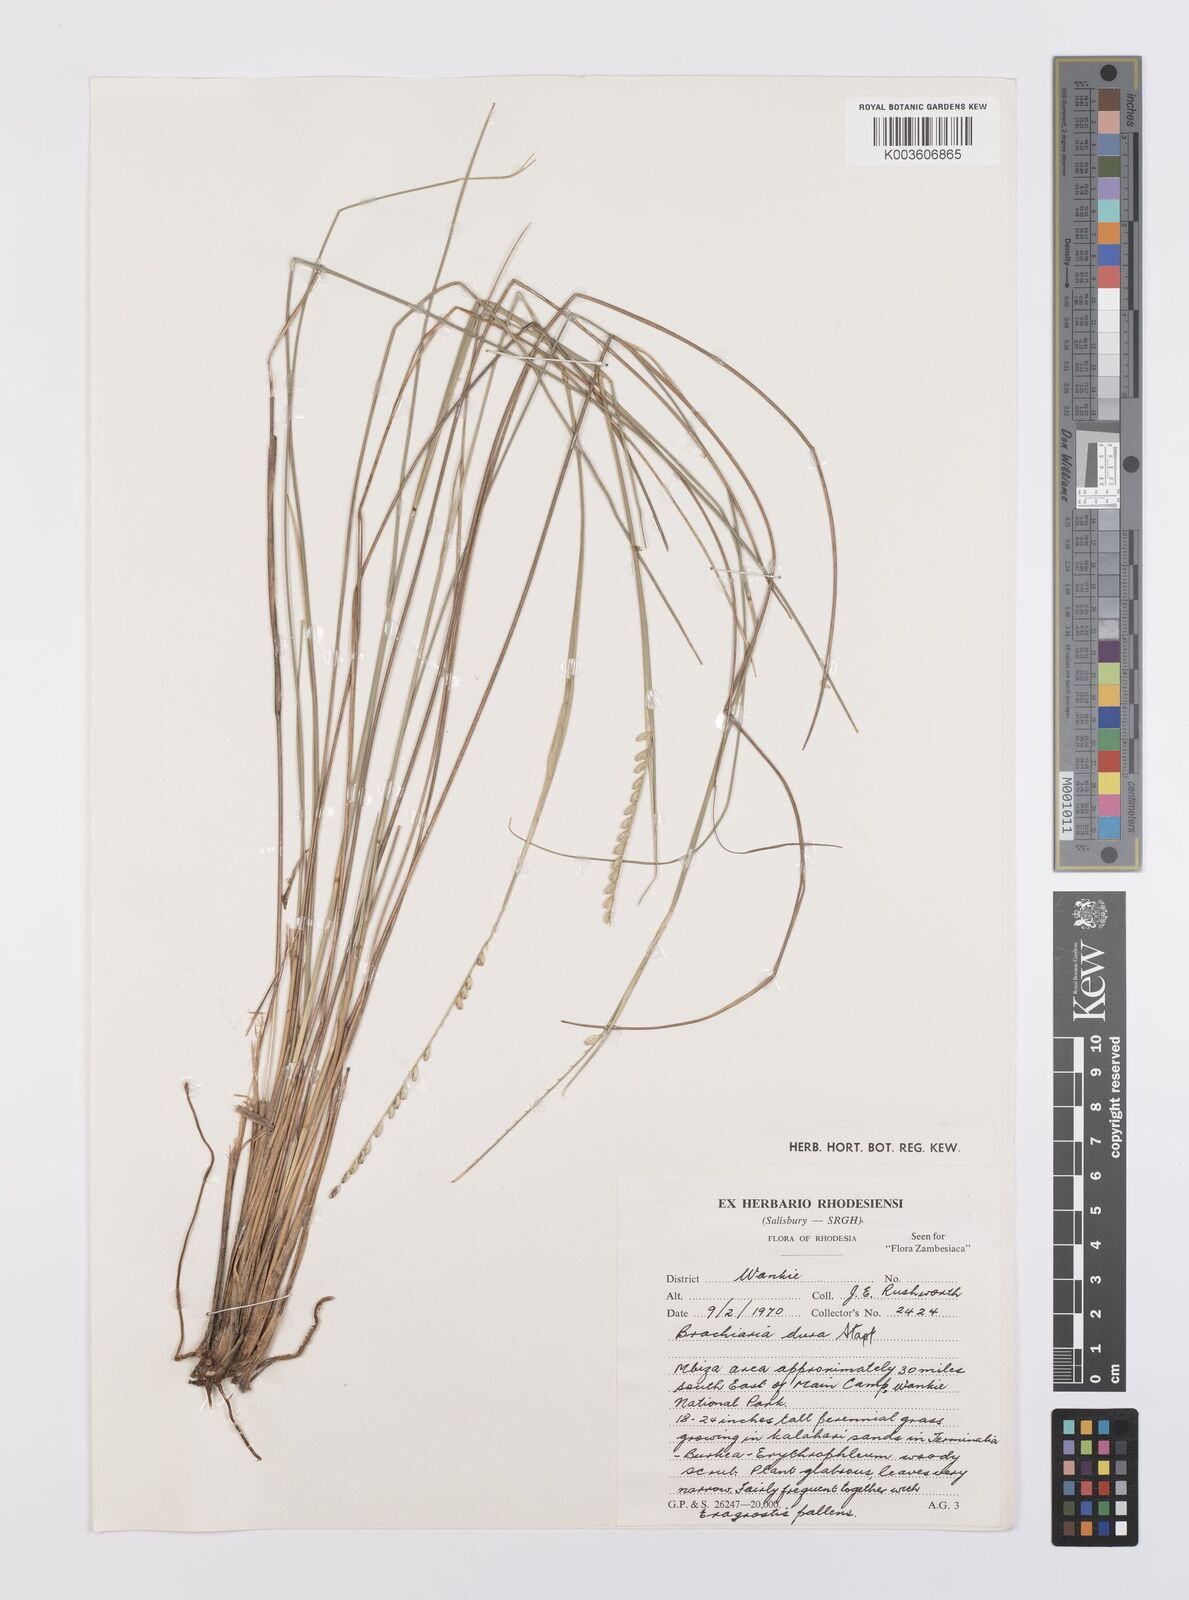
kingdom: Plantae
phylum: Tracheophyta
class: Liliopsida
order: Poales
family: Poaceae
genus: Urochloa
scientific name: Urochloa dura
